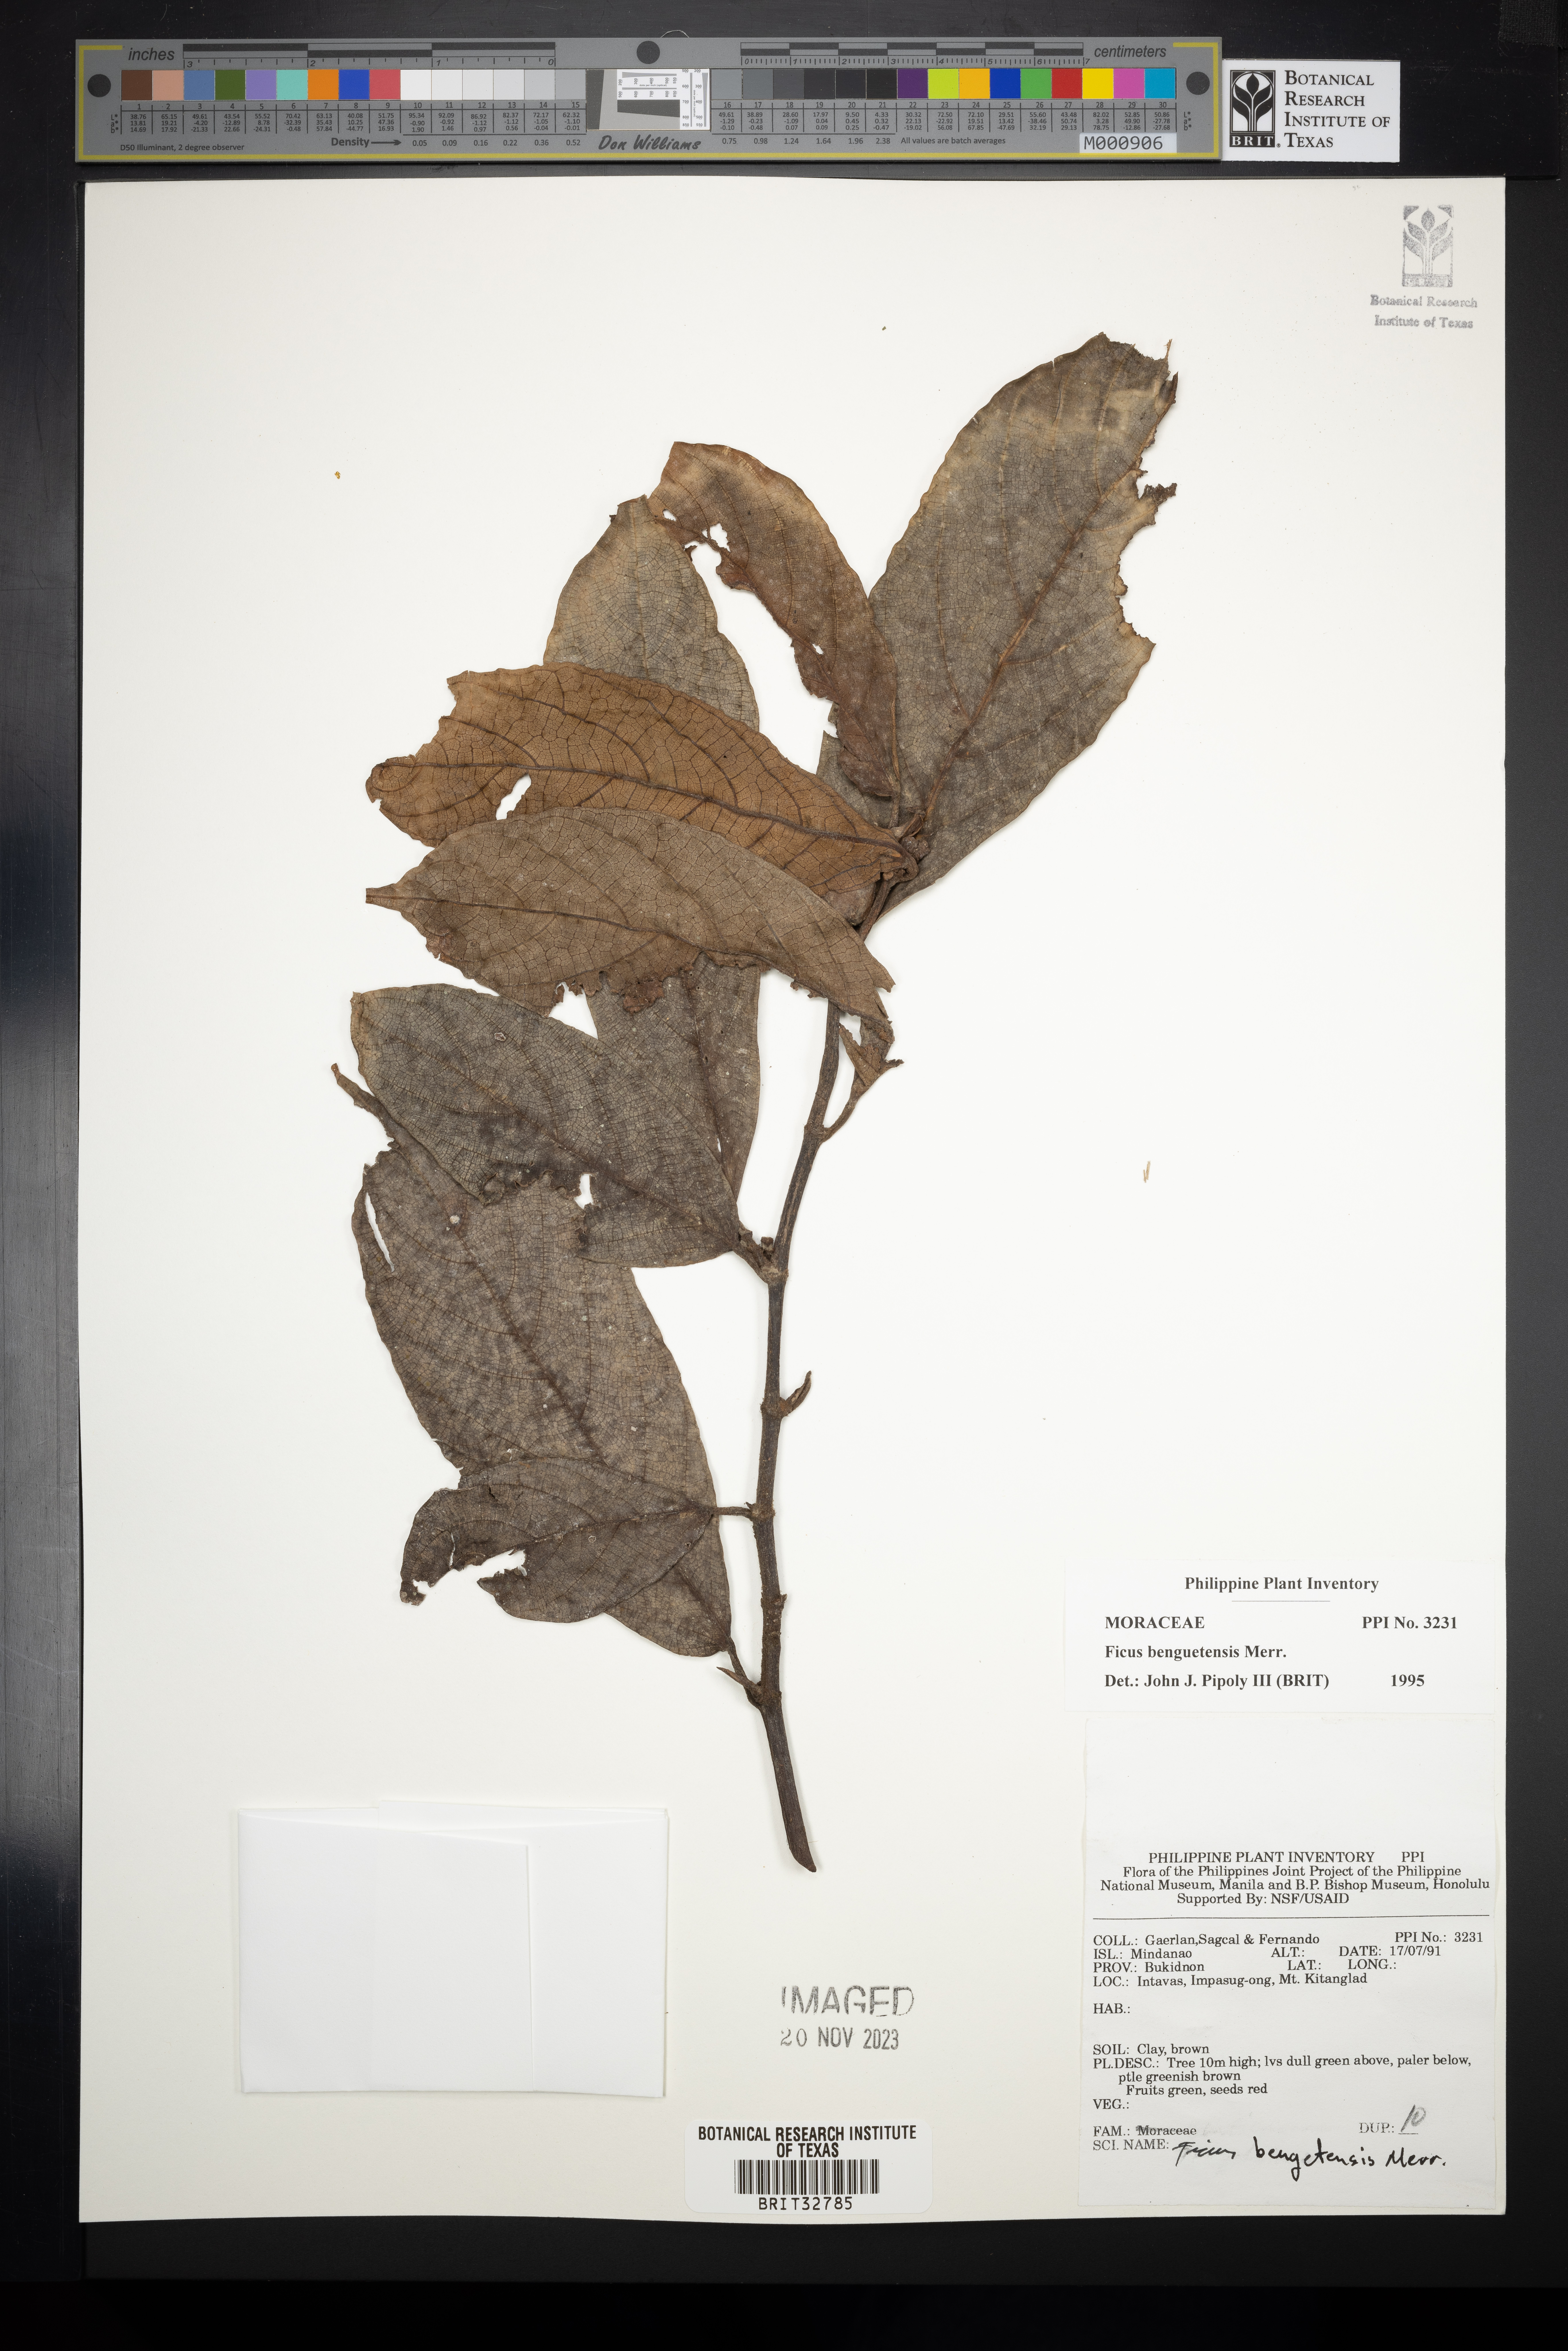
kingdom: Plantae
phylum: Tracheophyta
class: Magnoliopsida
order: Rosales
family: Moraceae
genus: Ficus
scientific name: Ficus benguetensis
